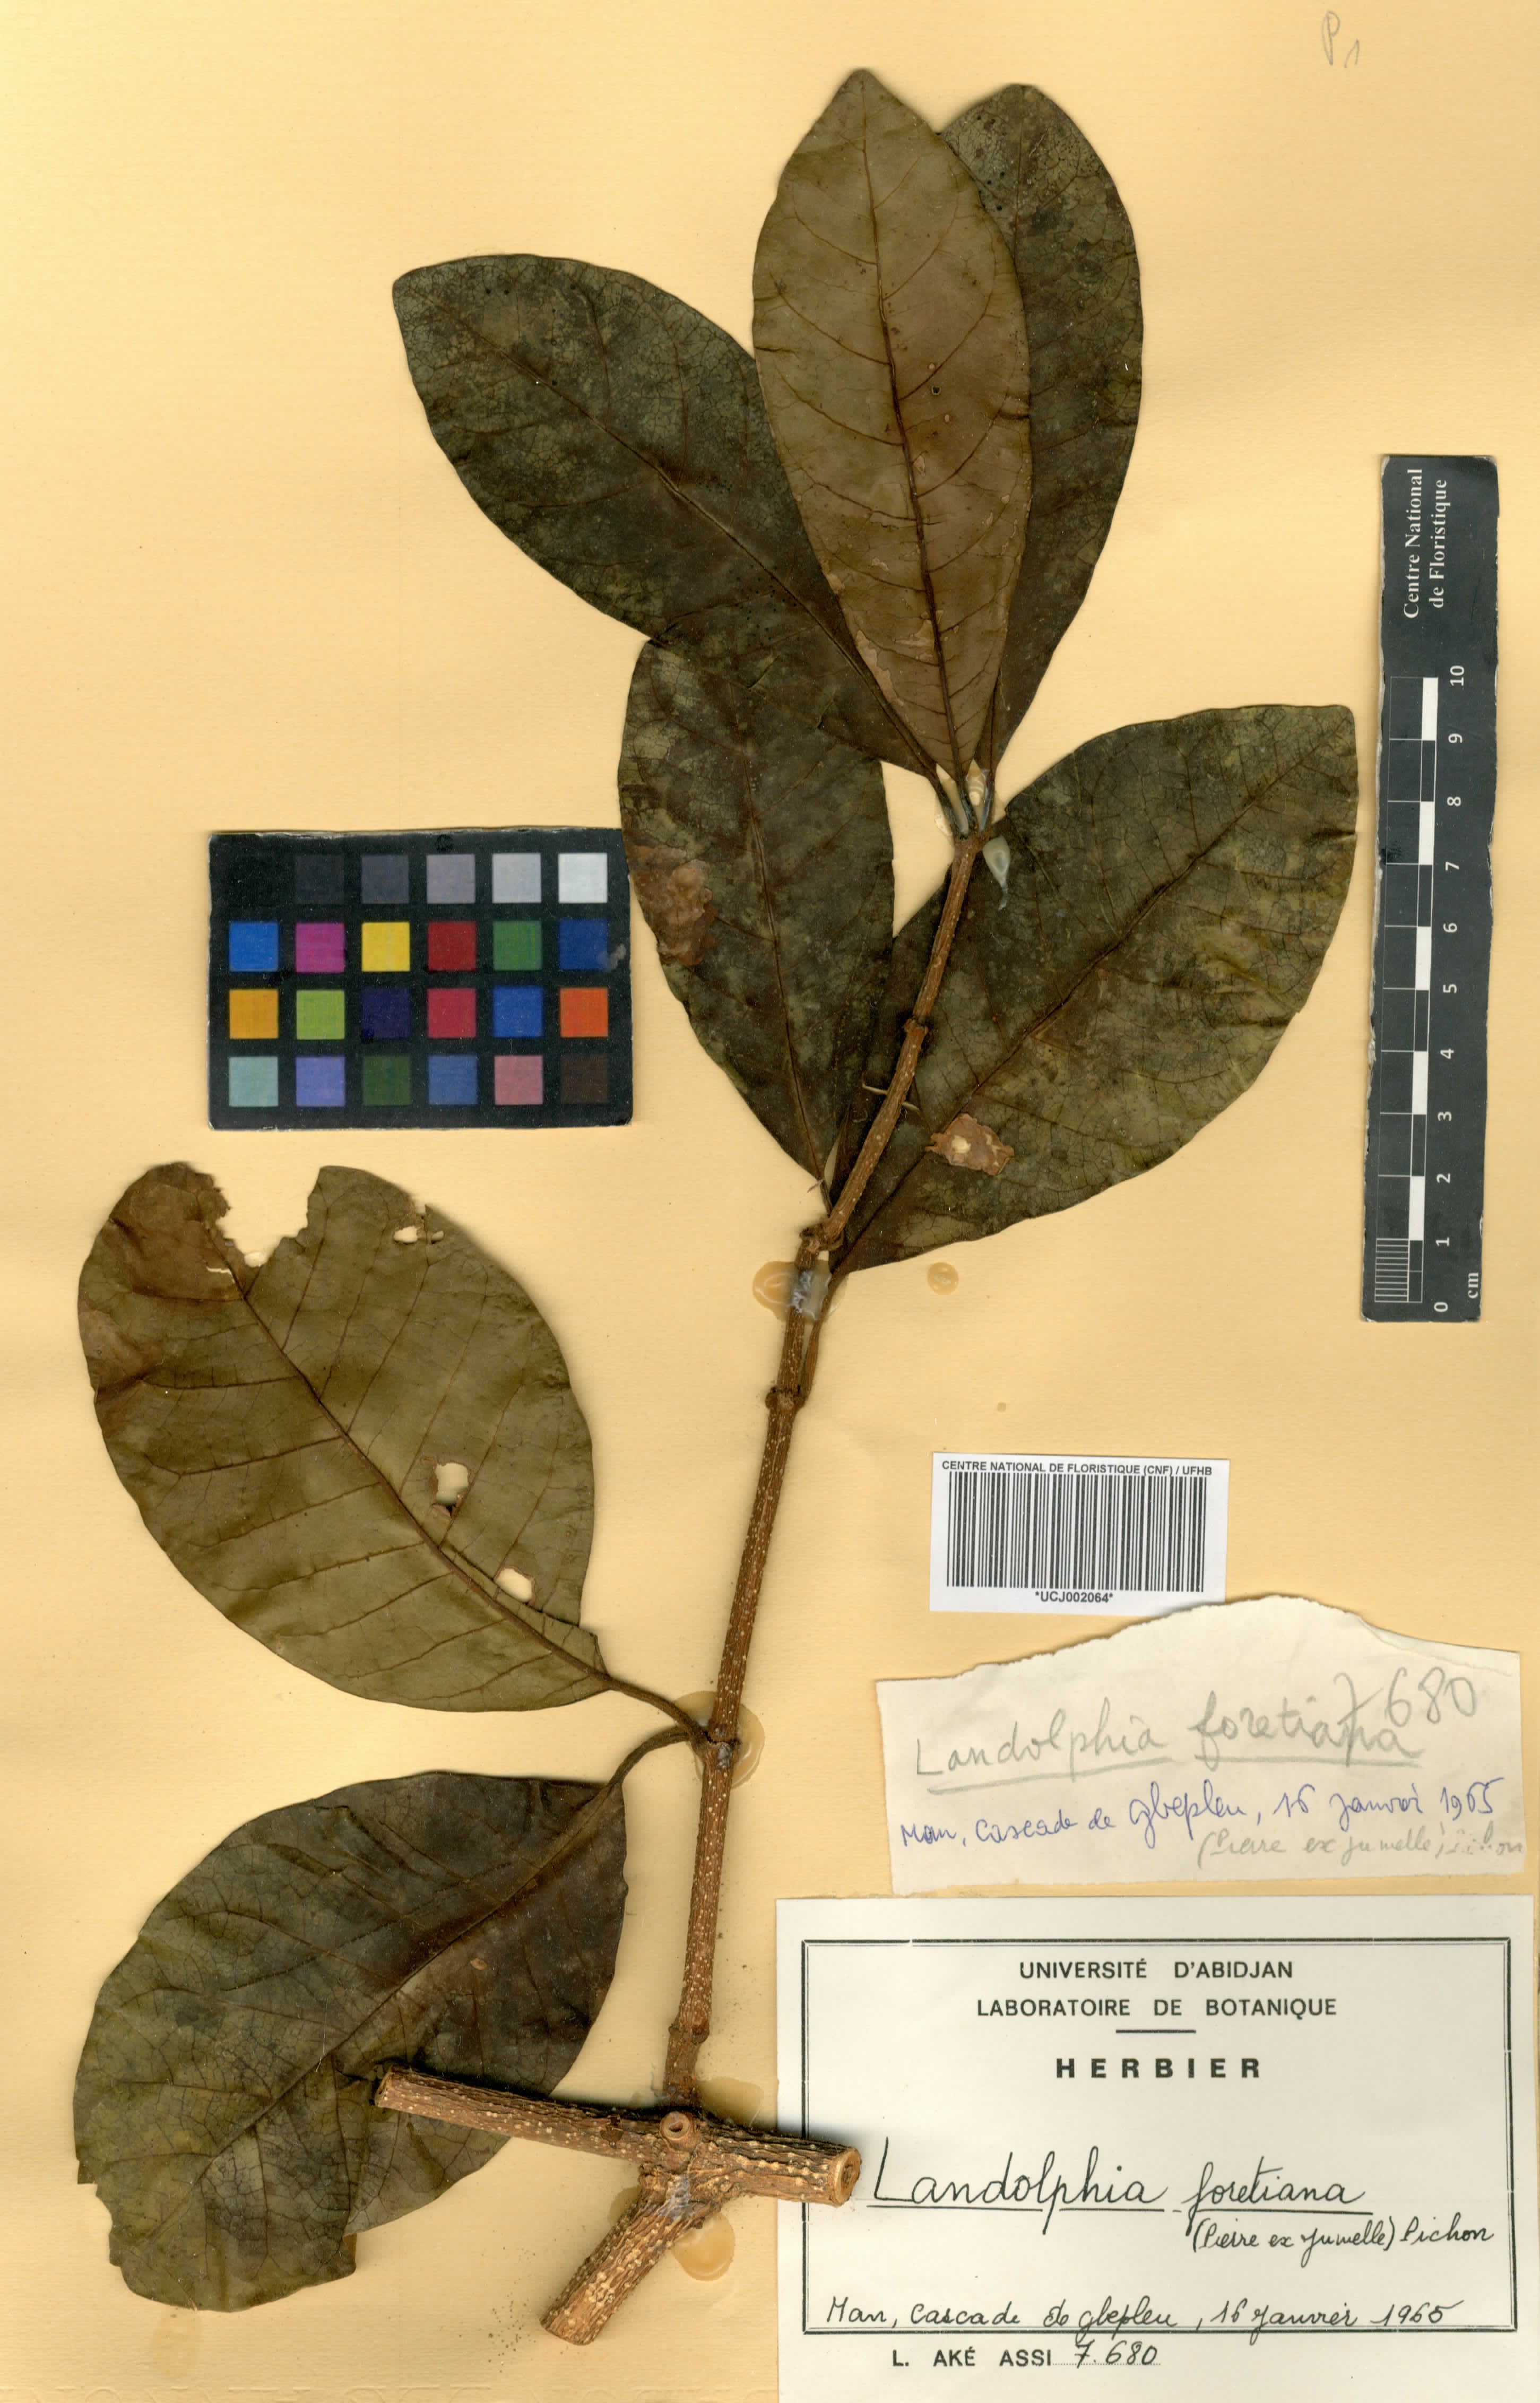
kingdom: Plantae
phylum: Tracheophyta
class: Magnoliopsida
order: Gentianales
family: Apocynaceae
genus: Landolphia
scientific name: Landolphia foretiana
